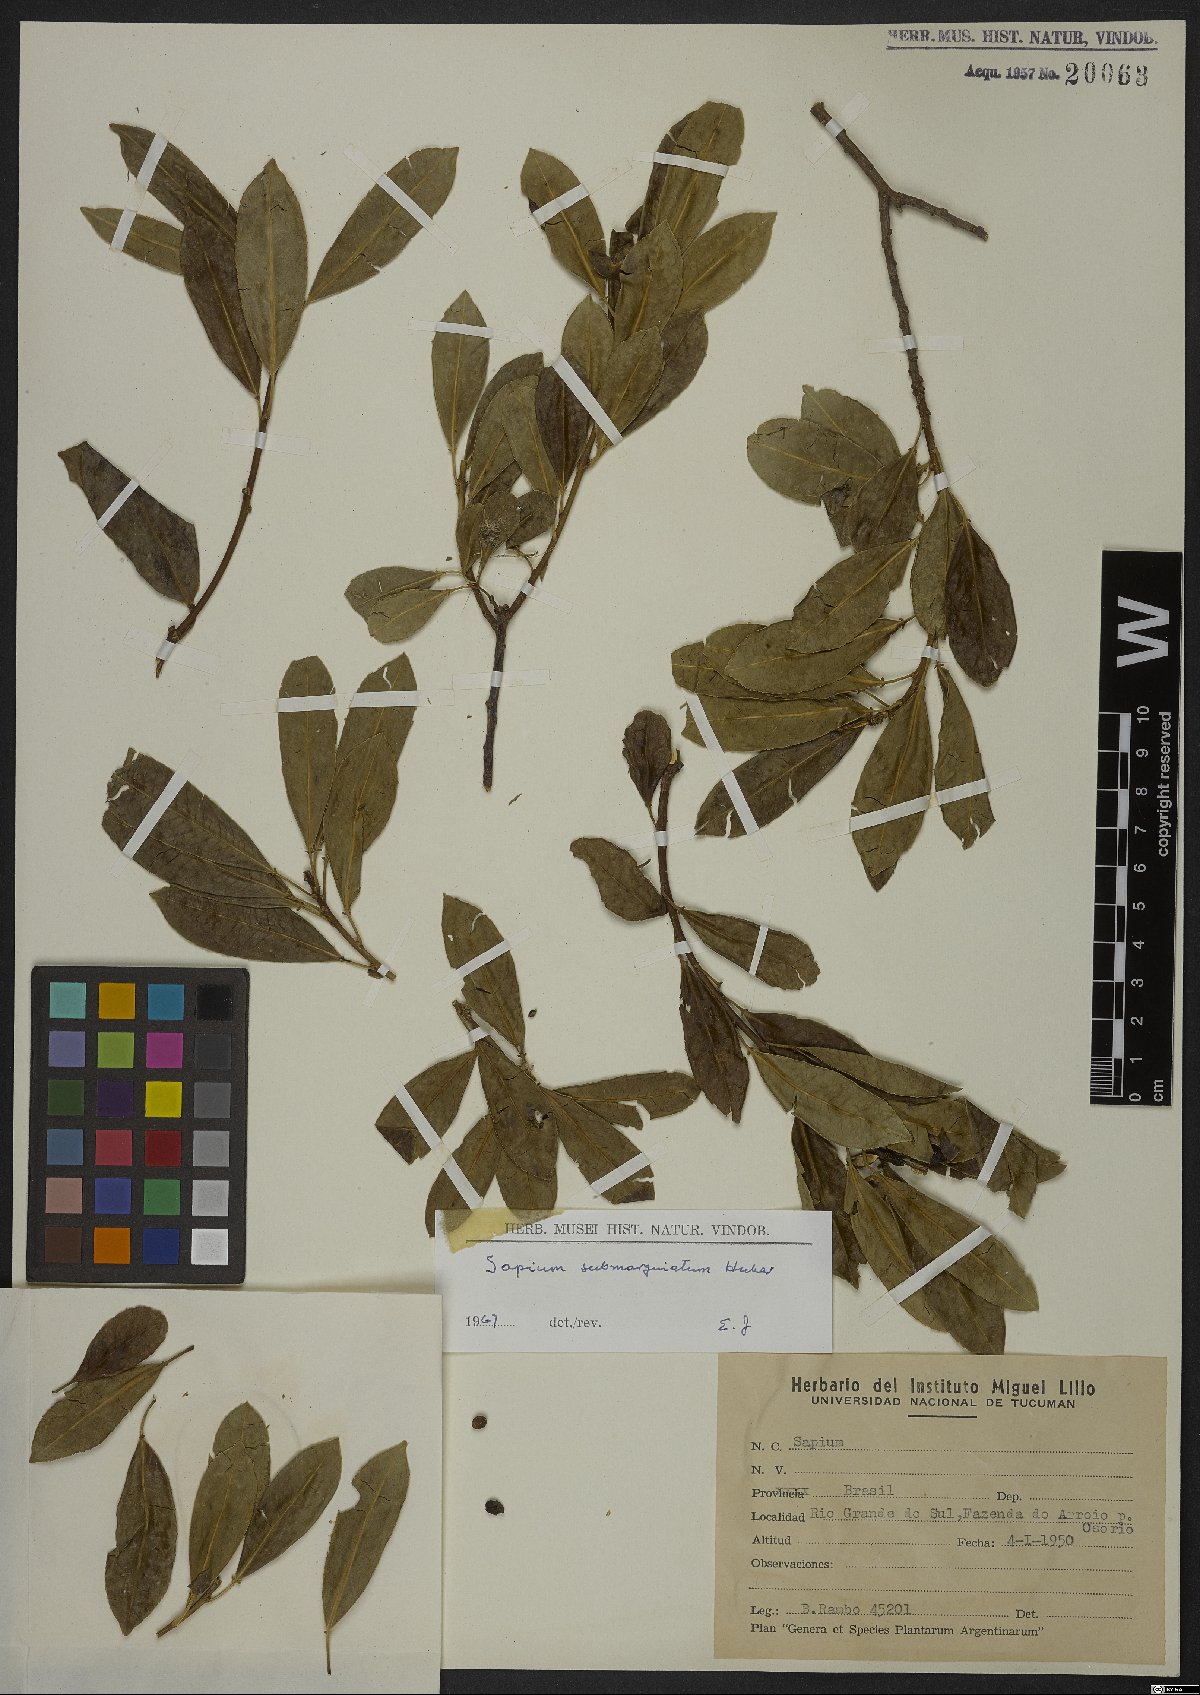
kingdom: Plantae
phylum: Tracheophyta
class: Magnoliopsida
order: Malpighiales
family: Euphorbiaceae
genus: Sapium
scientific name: Sapium glandulosum
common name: Milktree
